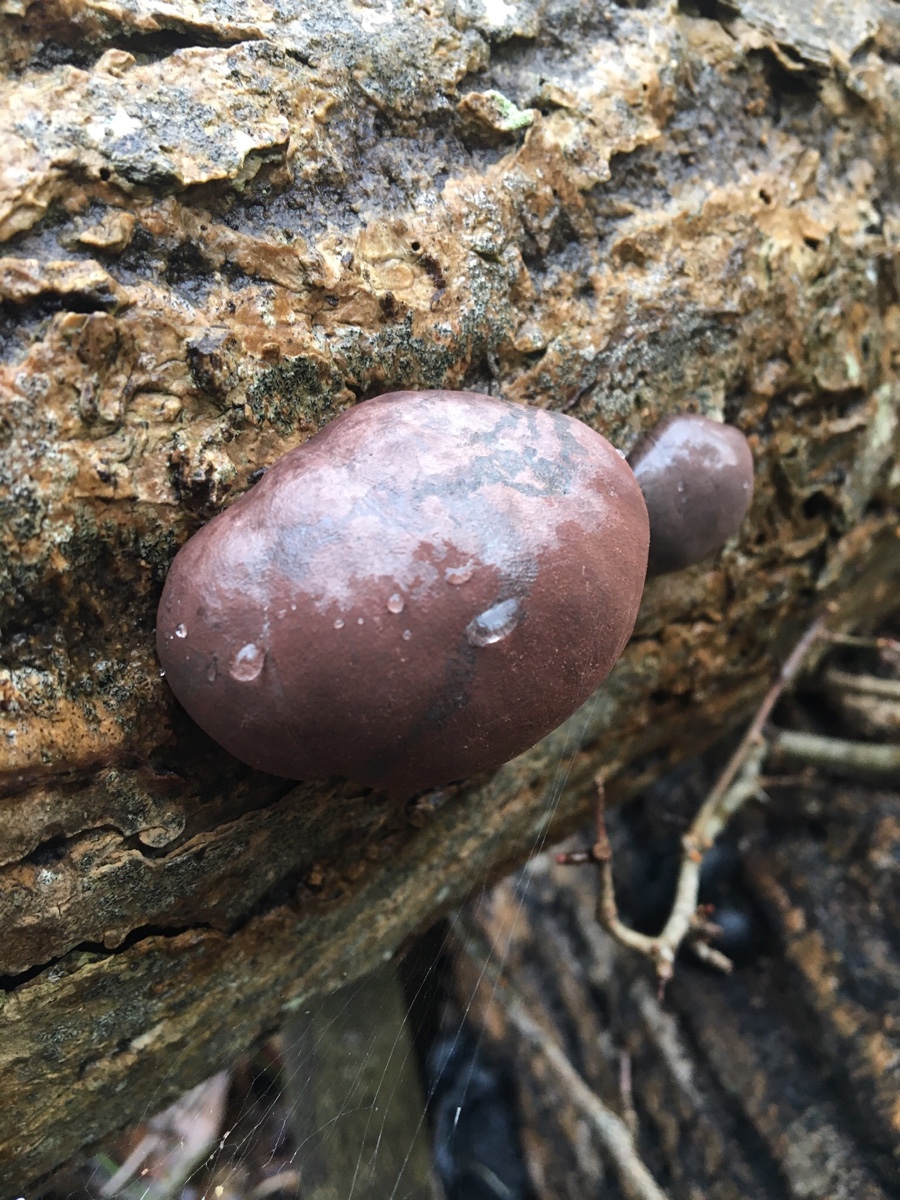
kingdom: Fungi
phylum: Ascomycota
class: Sordariomycetes
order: Xylariales
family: Hypoxylaceae
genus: Daldinia
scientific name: Daldinia concentrica
